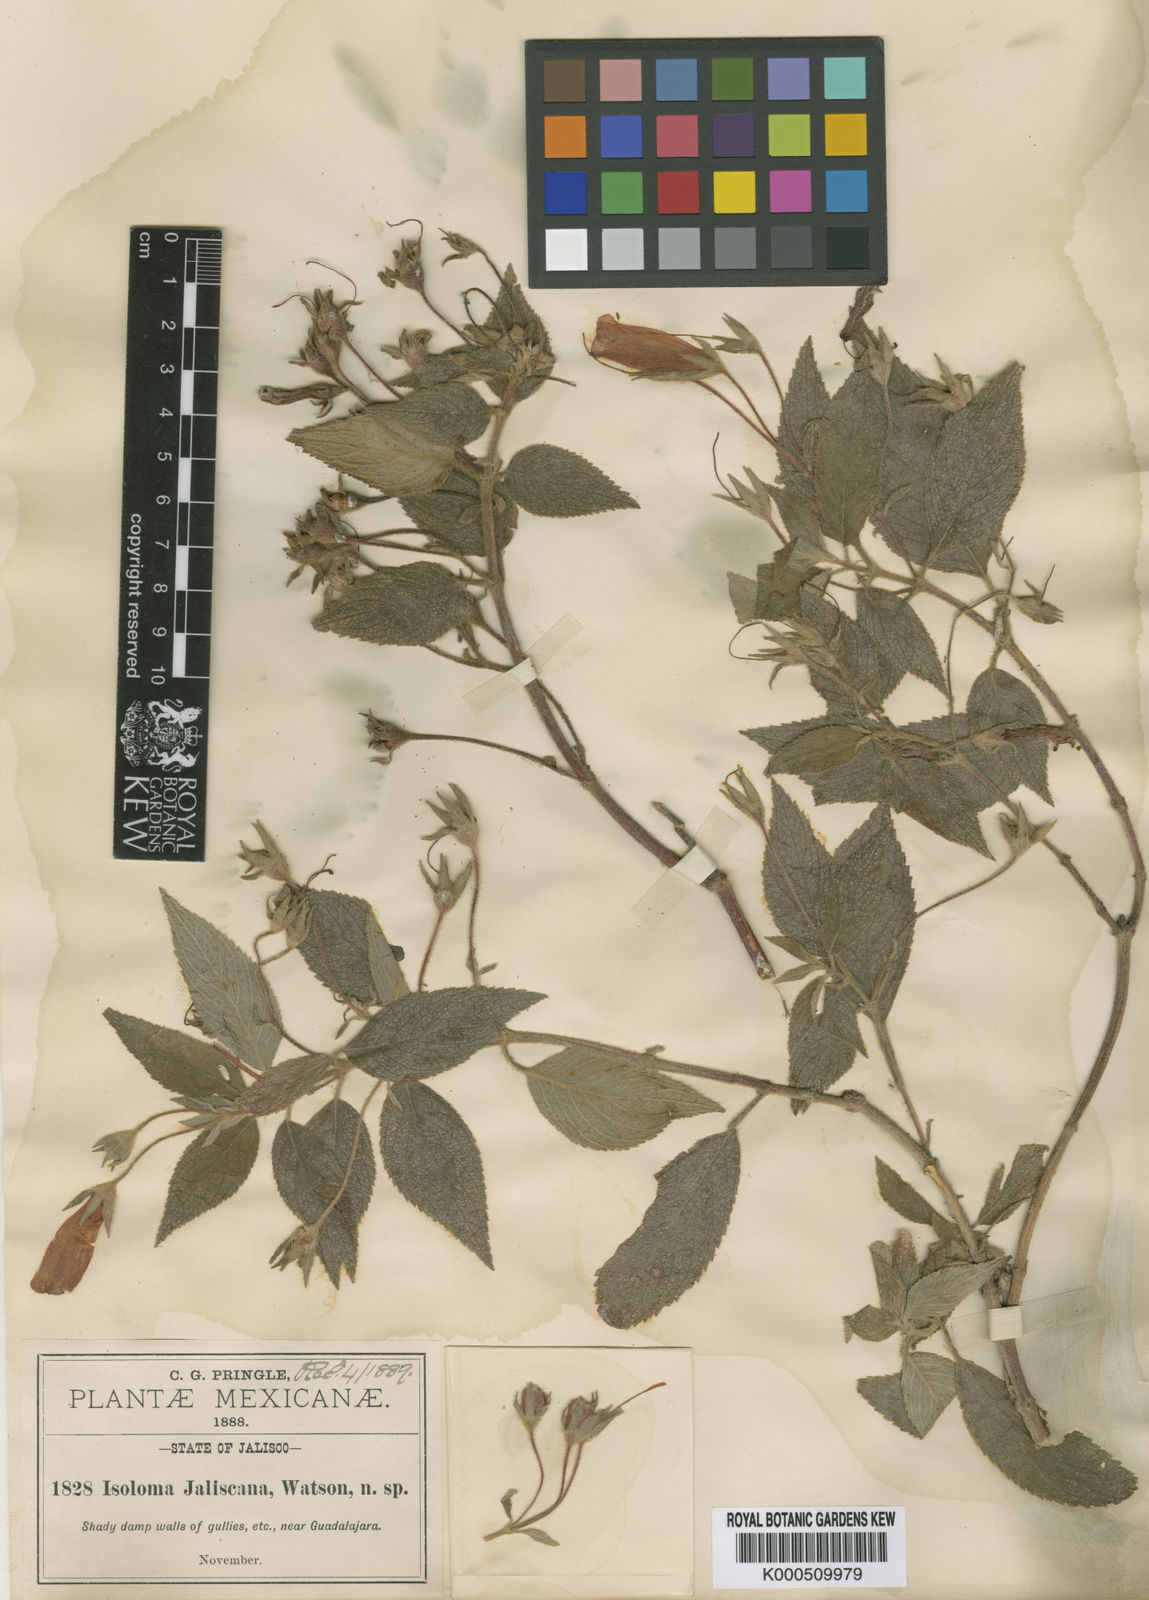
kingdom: Plantae
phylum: Tracheophyta
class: Magnoliopsida
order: Lamiales
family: Gesneriaceae
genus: Moussonia
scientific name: Moussonia jaliscana
